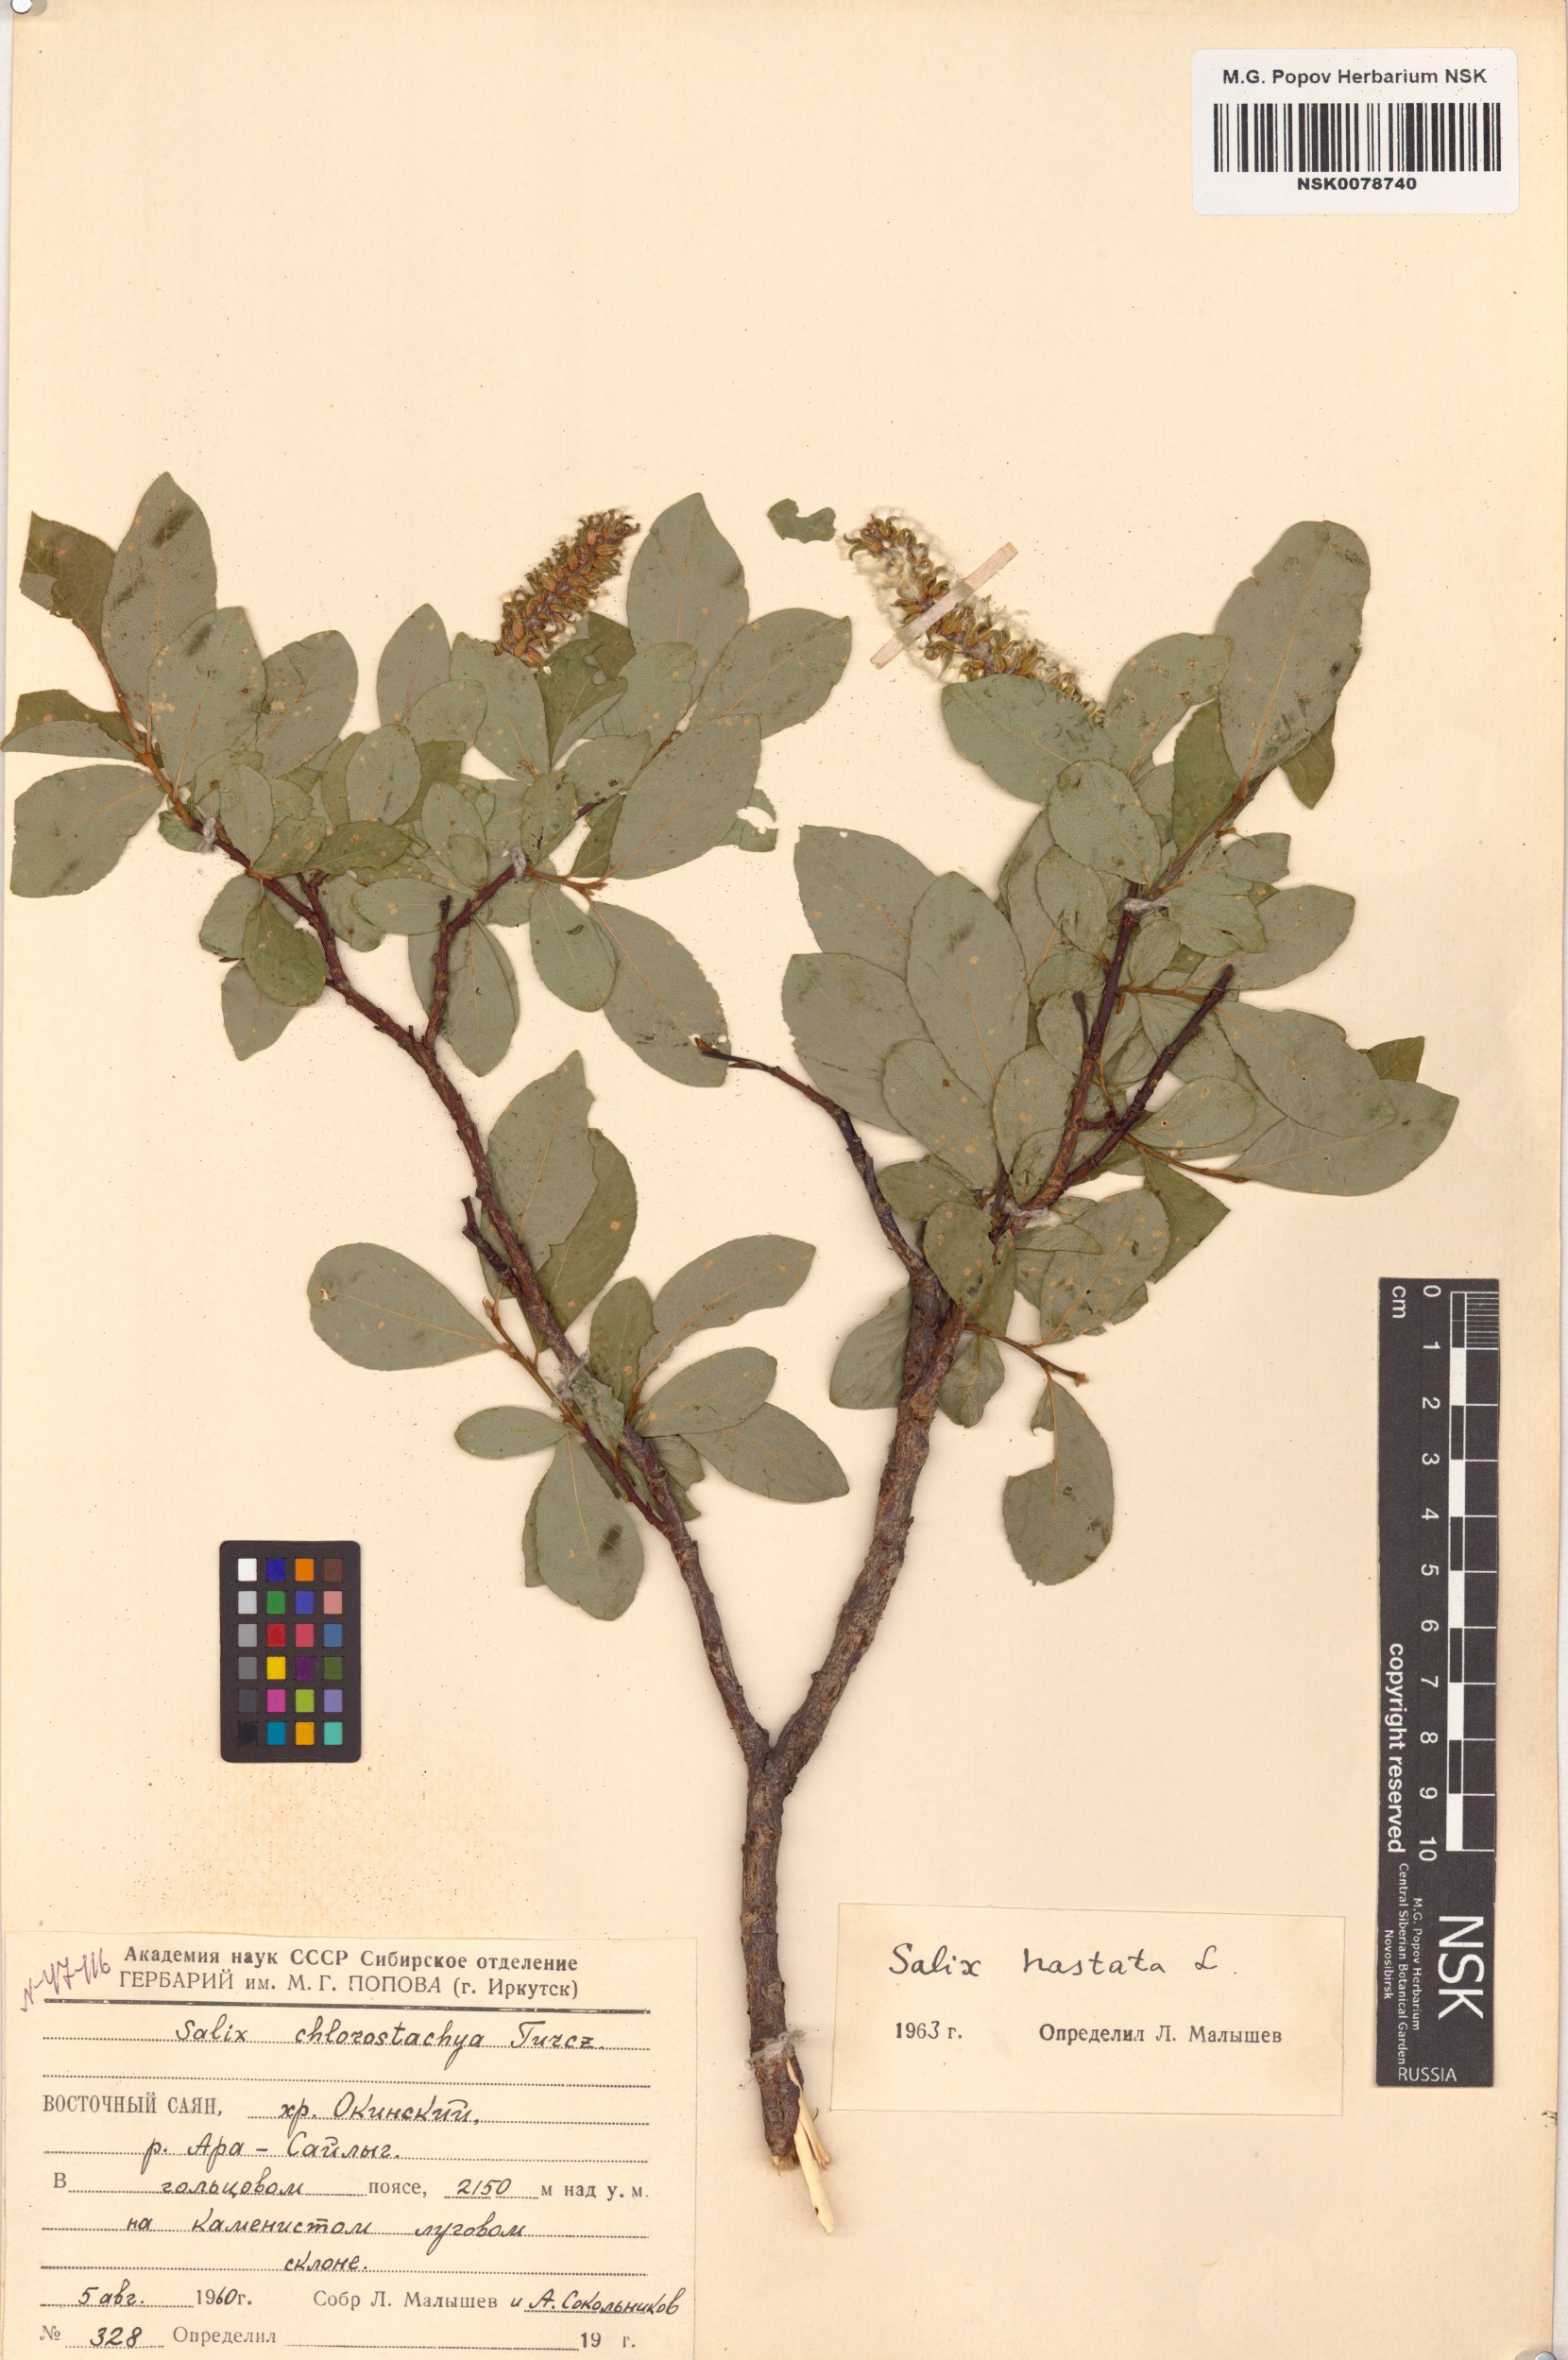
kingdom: Plantae
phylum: Tracheophyta
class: Magnoliopsida
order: Malpighiales
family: Salicaceae
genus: Salix
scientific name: Salix hastata
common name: Halberd willow
